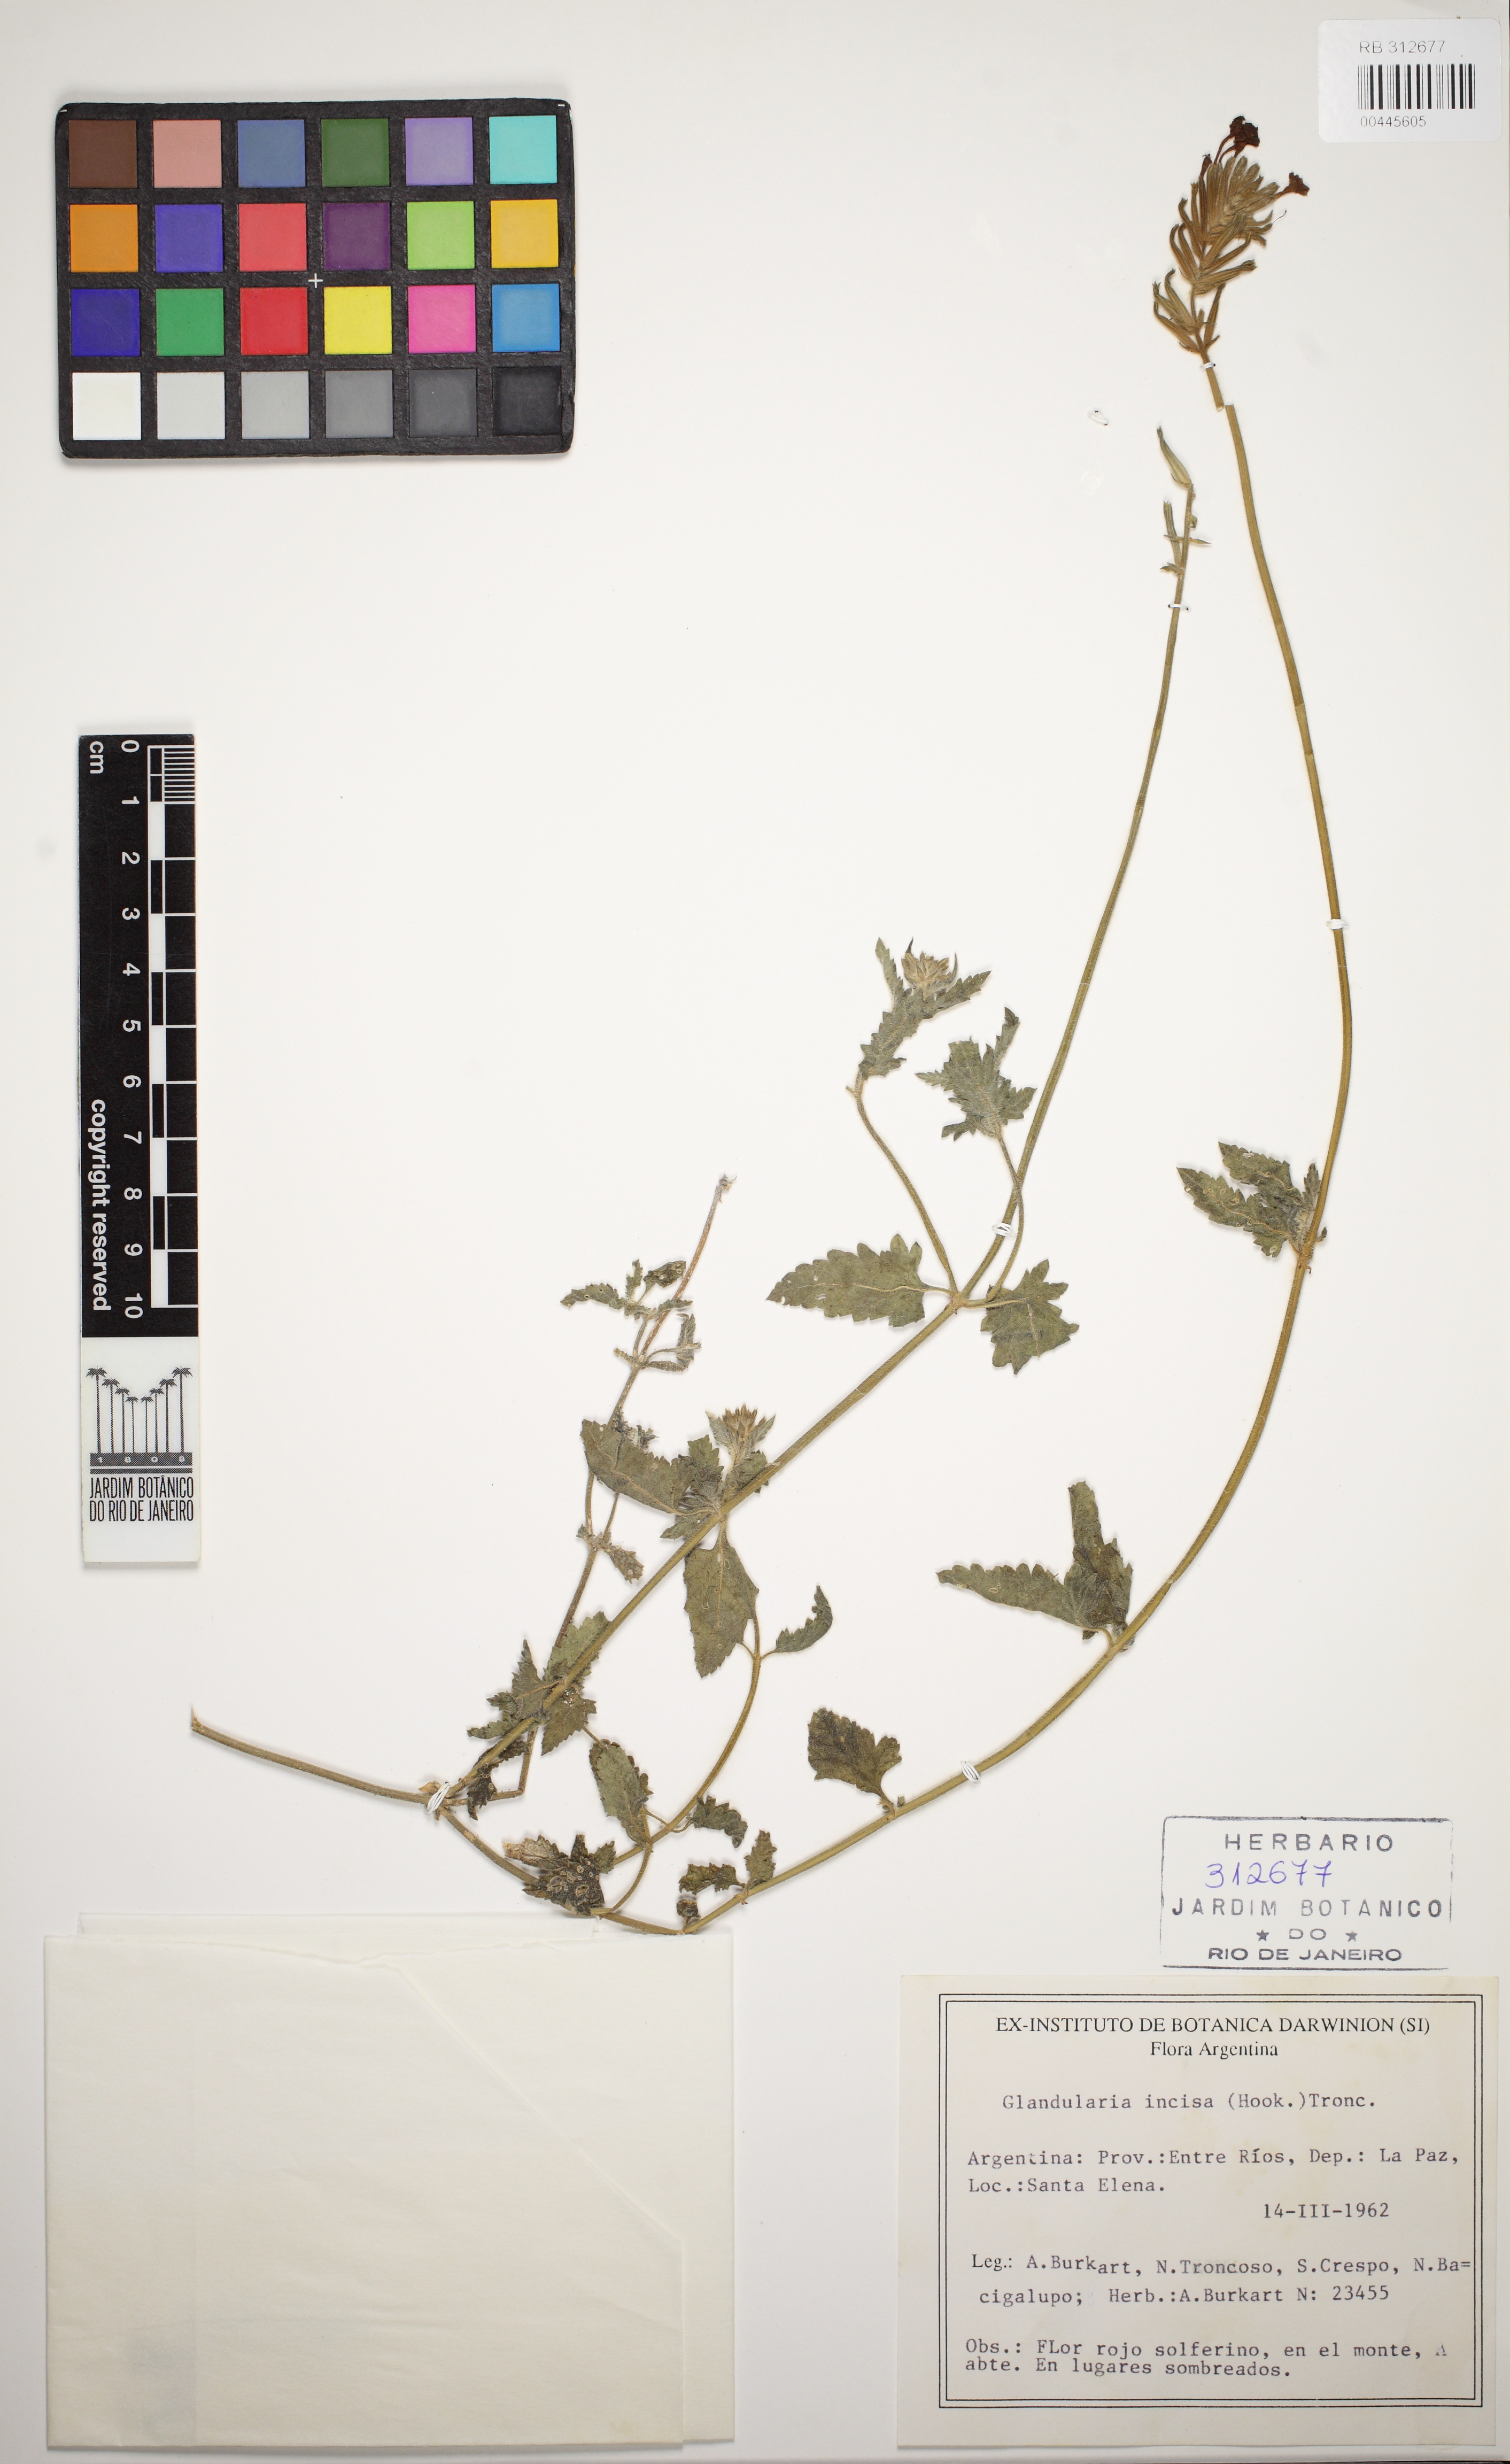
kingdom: Plantae
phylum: Tracheophyta
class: Magnoliopsida
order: Lamiales
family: Verbenaceae
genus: Verbena
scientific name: Verbena tweedieana
